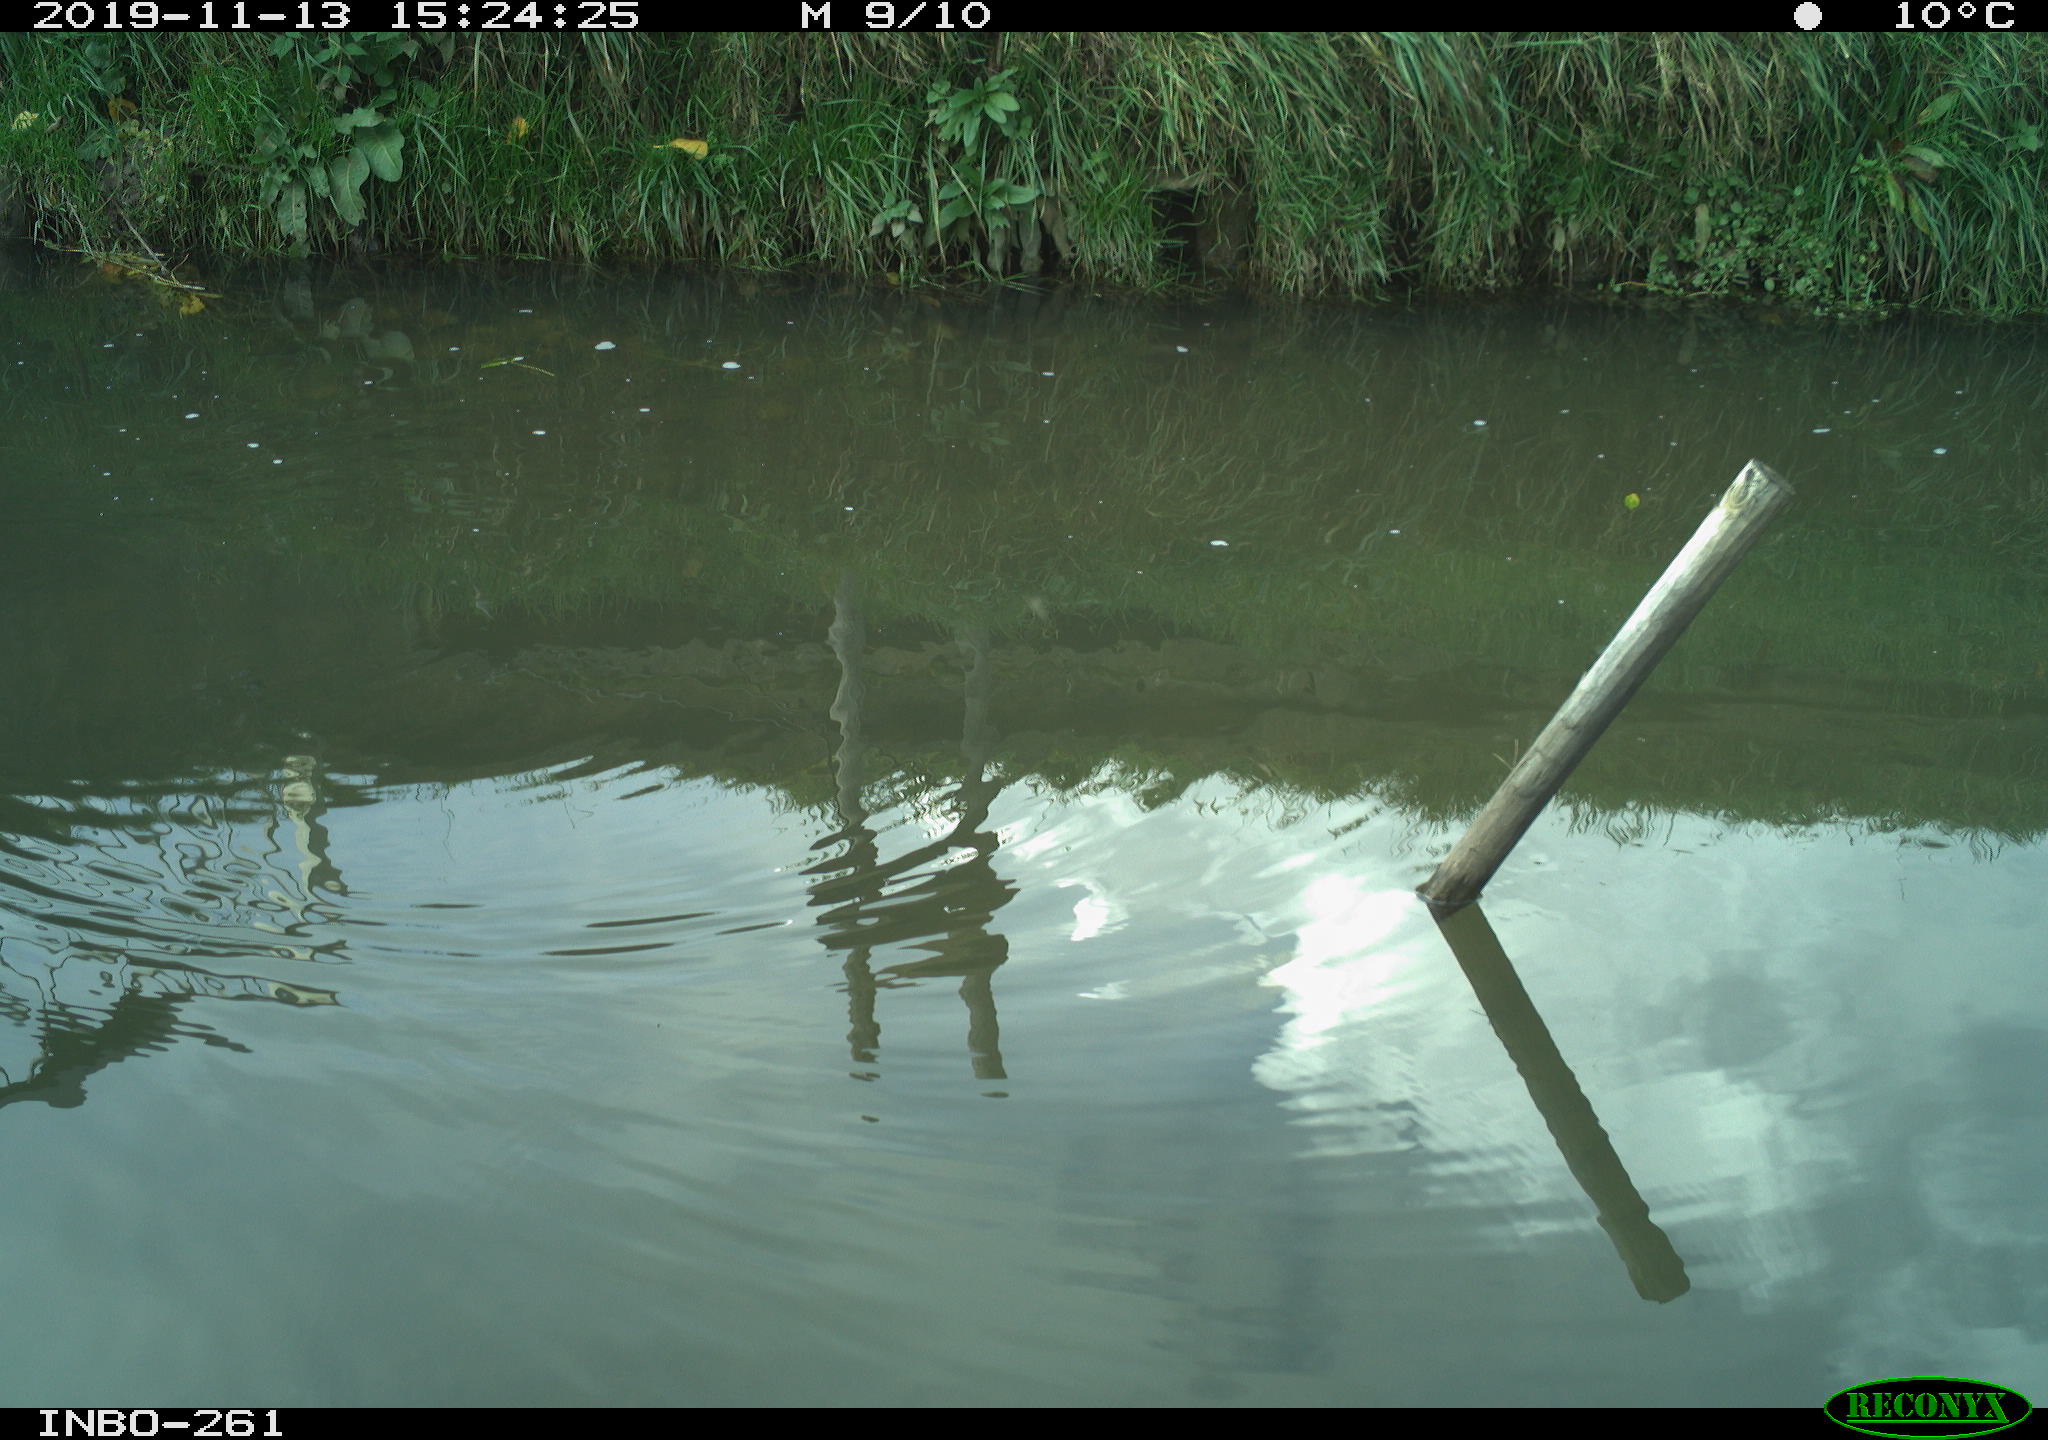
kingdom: Animalia
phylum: Chordata
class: Aves
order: Gruiformes
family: Rallidae
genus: Gallinula
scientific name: Gallinula chloropus
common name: Common moorhen
